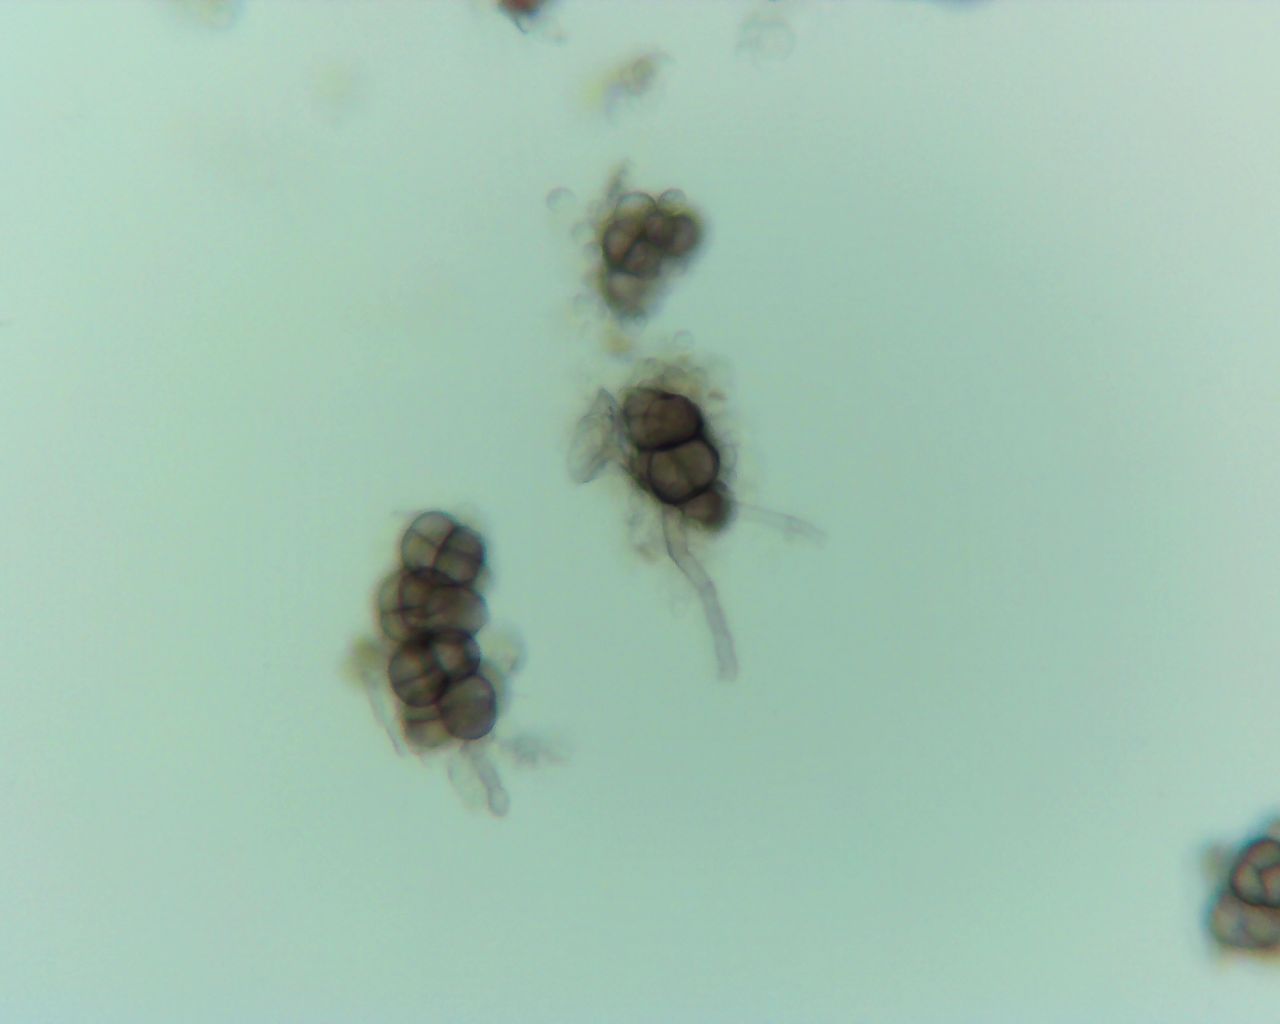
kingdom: Fungi
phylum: Ascomycota
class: Leotiomycetes
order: Helotiales
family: Erysiphaceae
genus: Phyllactinia
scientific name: Phyllactinia guttata
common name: hassel-meldug
